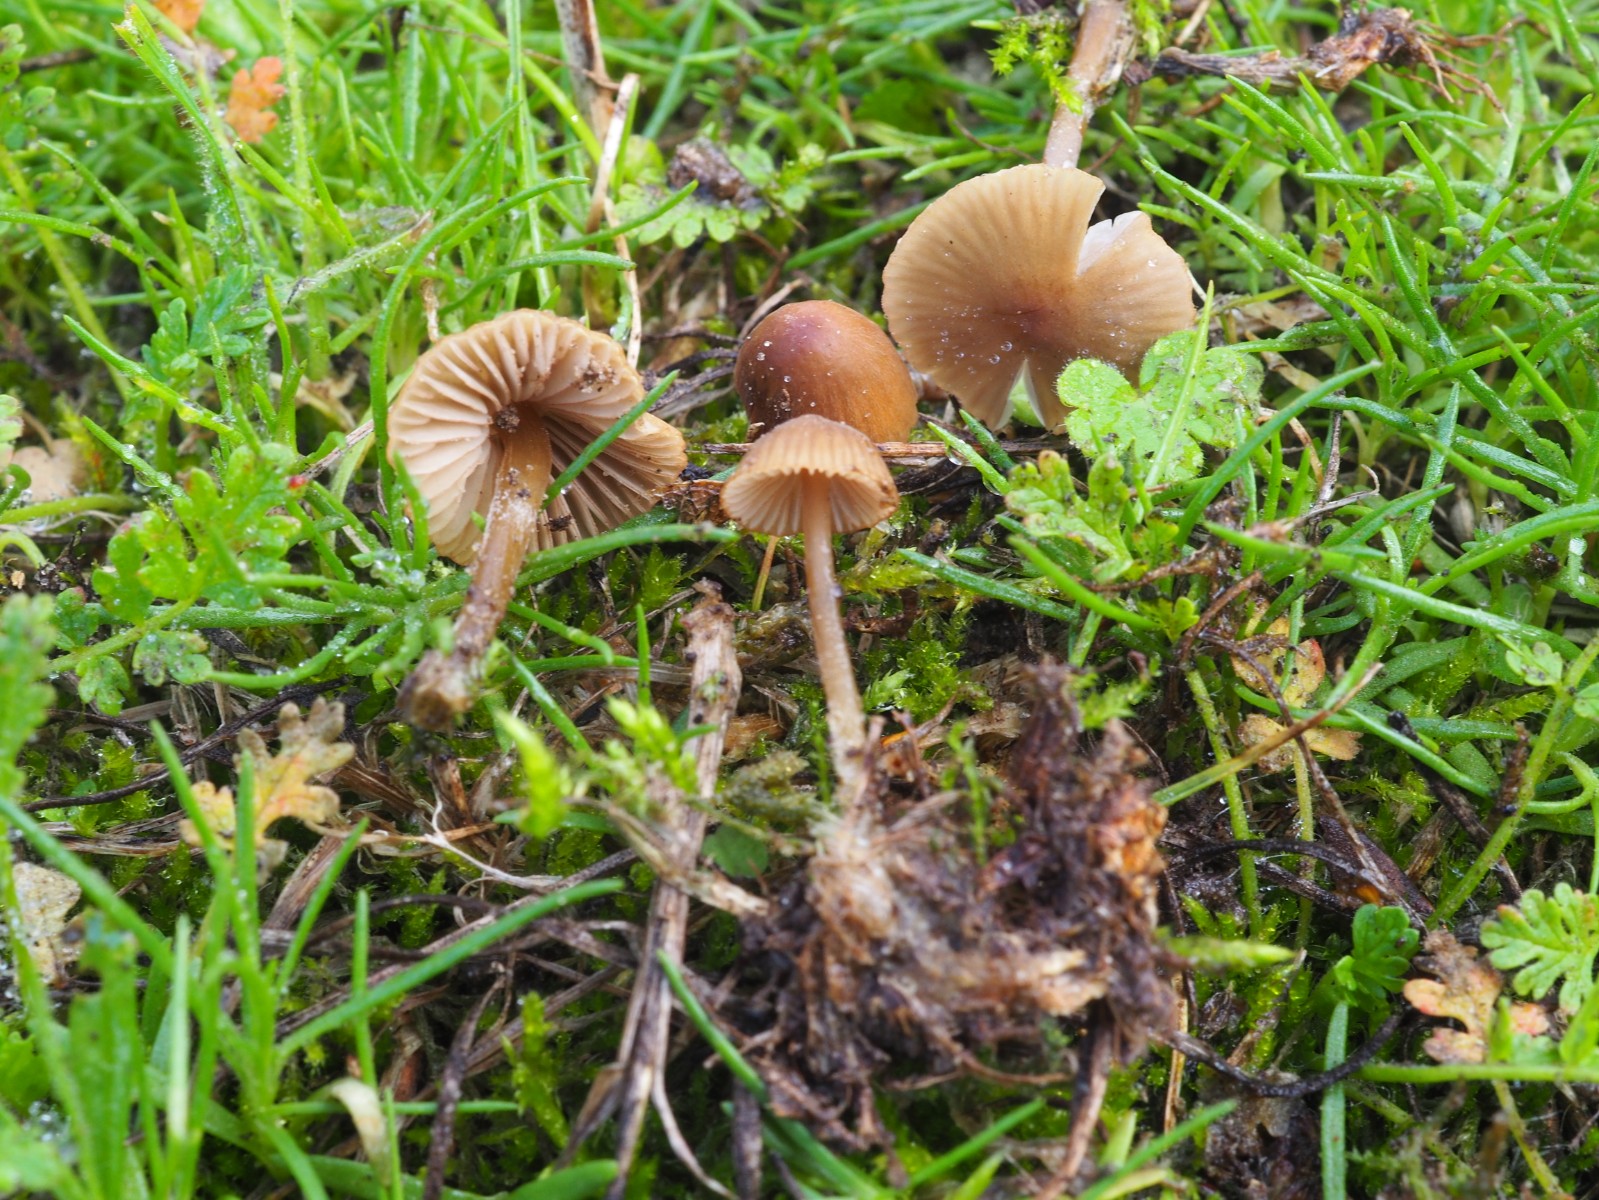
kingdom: Fungi
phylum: Basidiomycota
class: Agaricomycetes
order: Agaricales
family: Mycenaceae
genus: Mycena
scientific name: Mycena olivaceomarginata
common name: brunægget huesvamp
